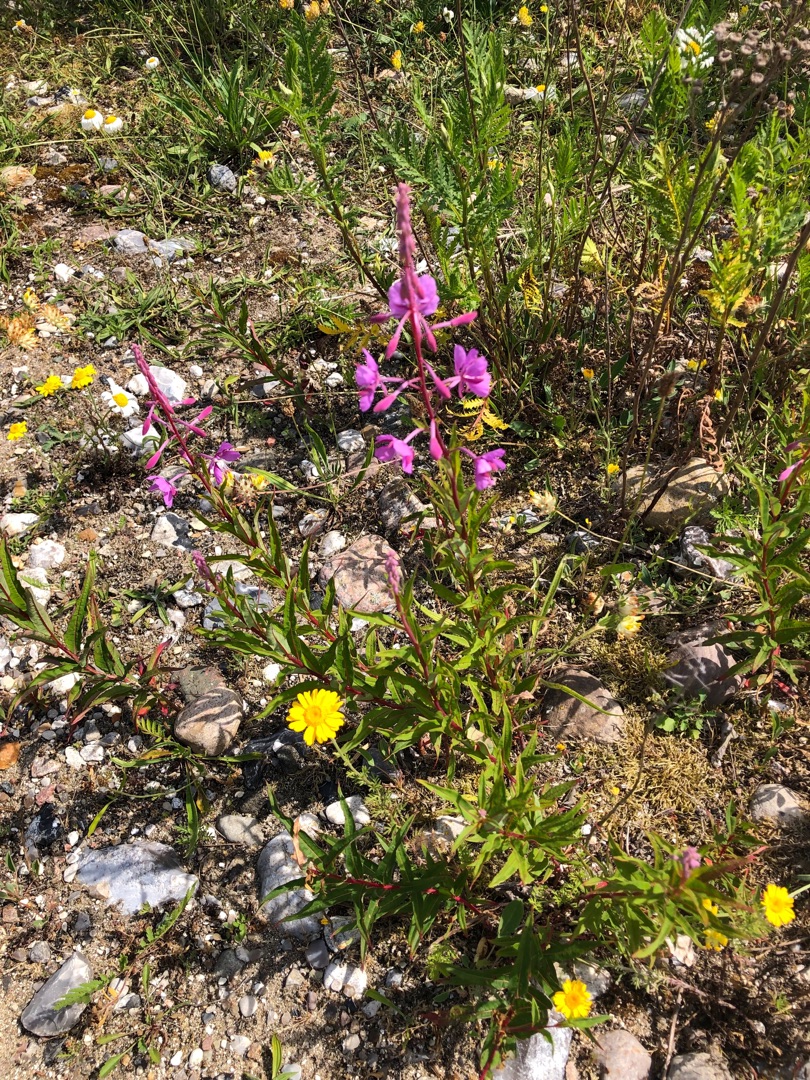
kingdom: Plantae
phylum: Tracheophyta
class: Magnoliopsida
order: Myrtales
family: Onagraceae
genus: Chamaenerion
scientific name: Chamaenerion angustifolium
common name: Gederams
